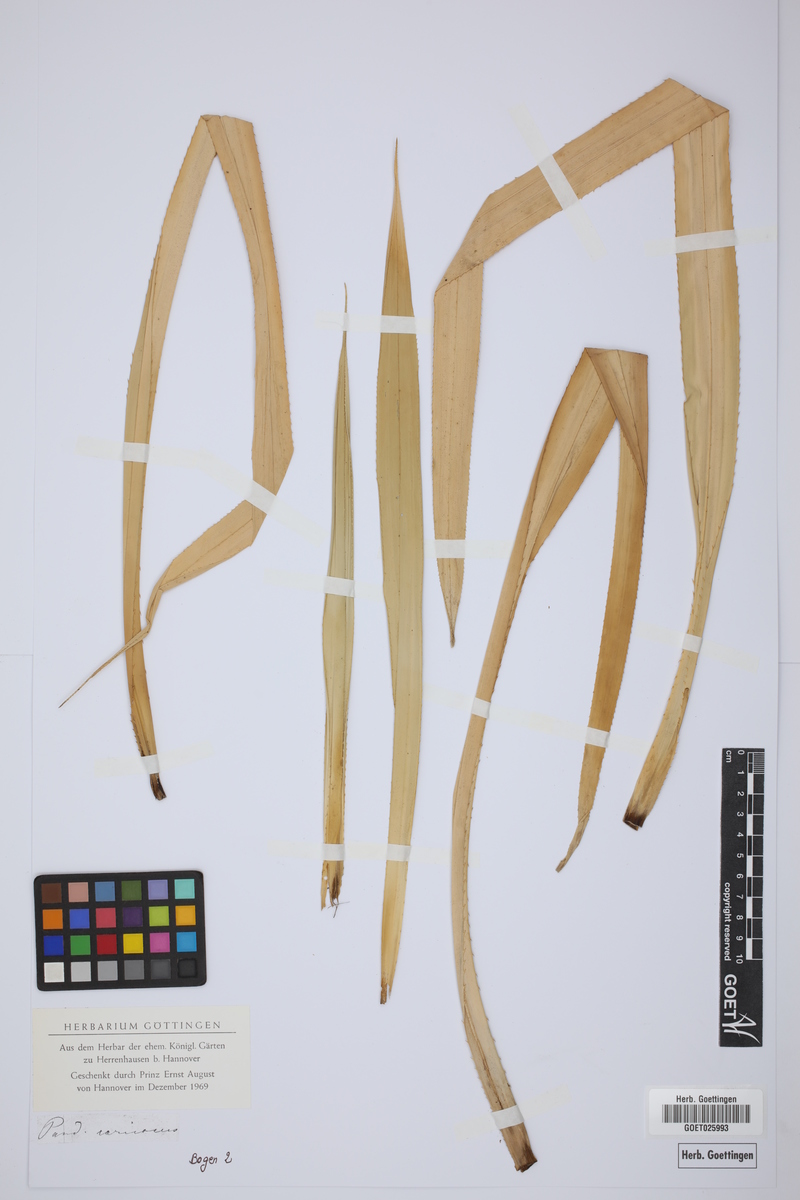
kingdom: Plantae
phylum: Tracheophyta
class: Liliopsida
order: Pandanales
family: Pandanaceae
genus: Pandanus
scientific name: Pandanus caricosus
